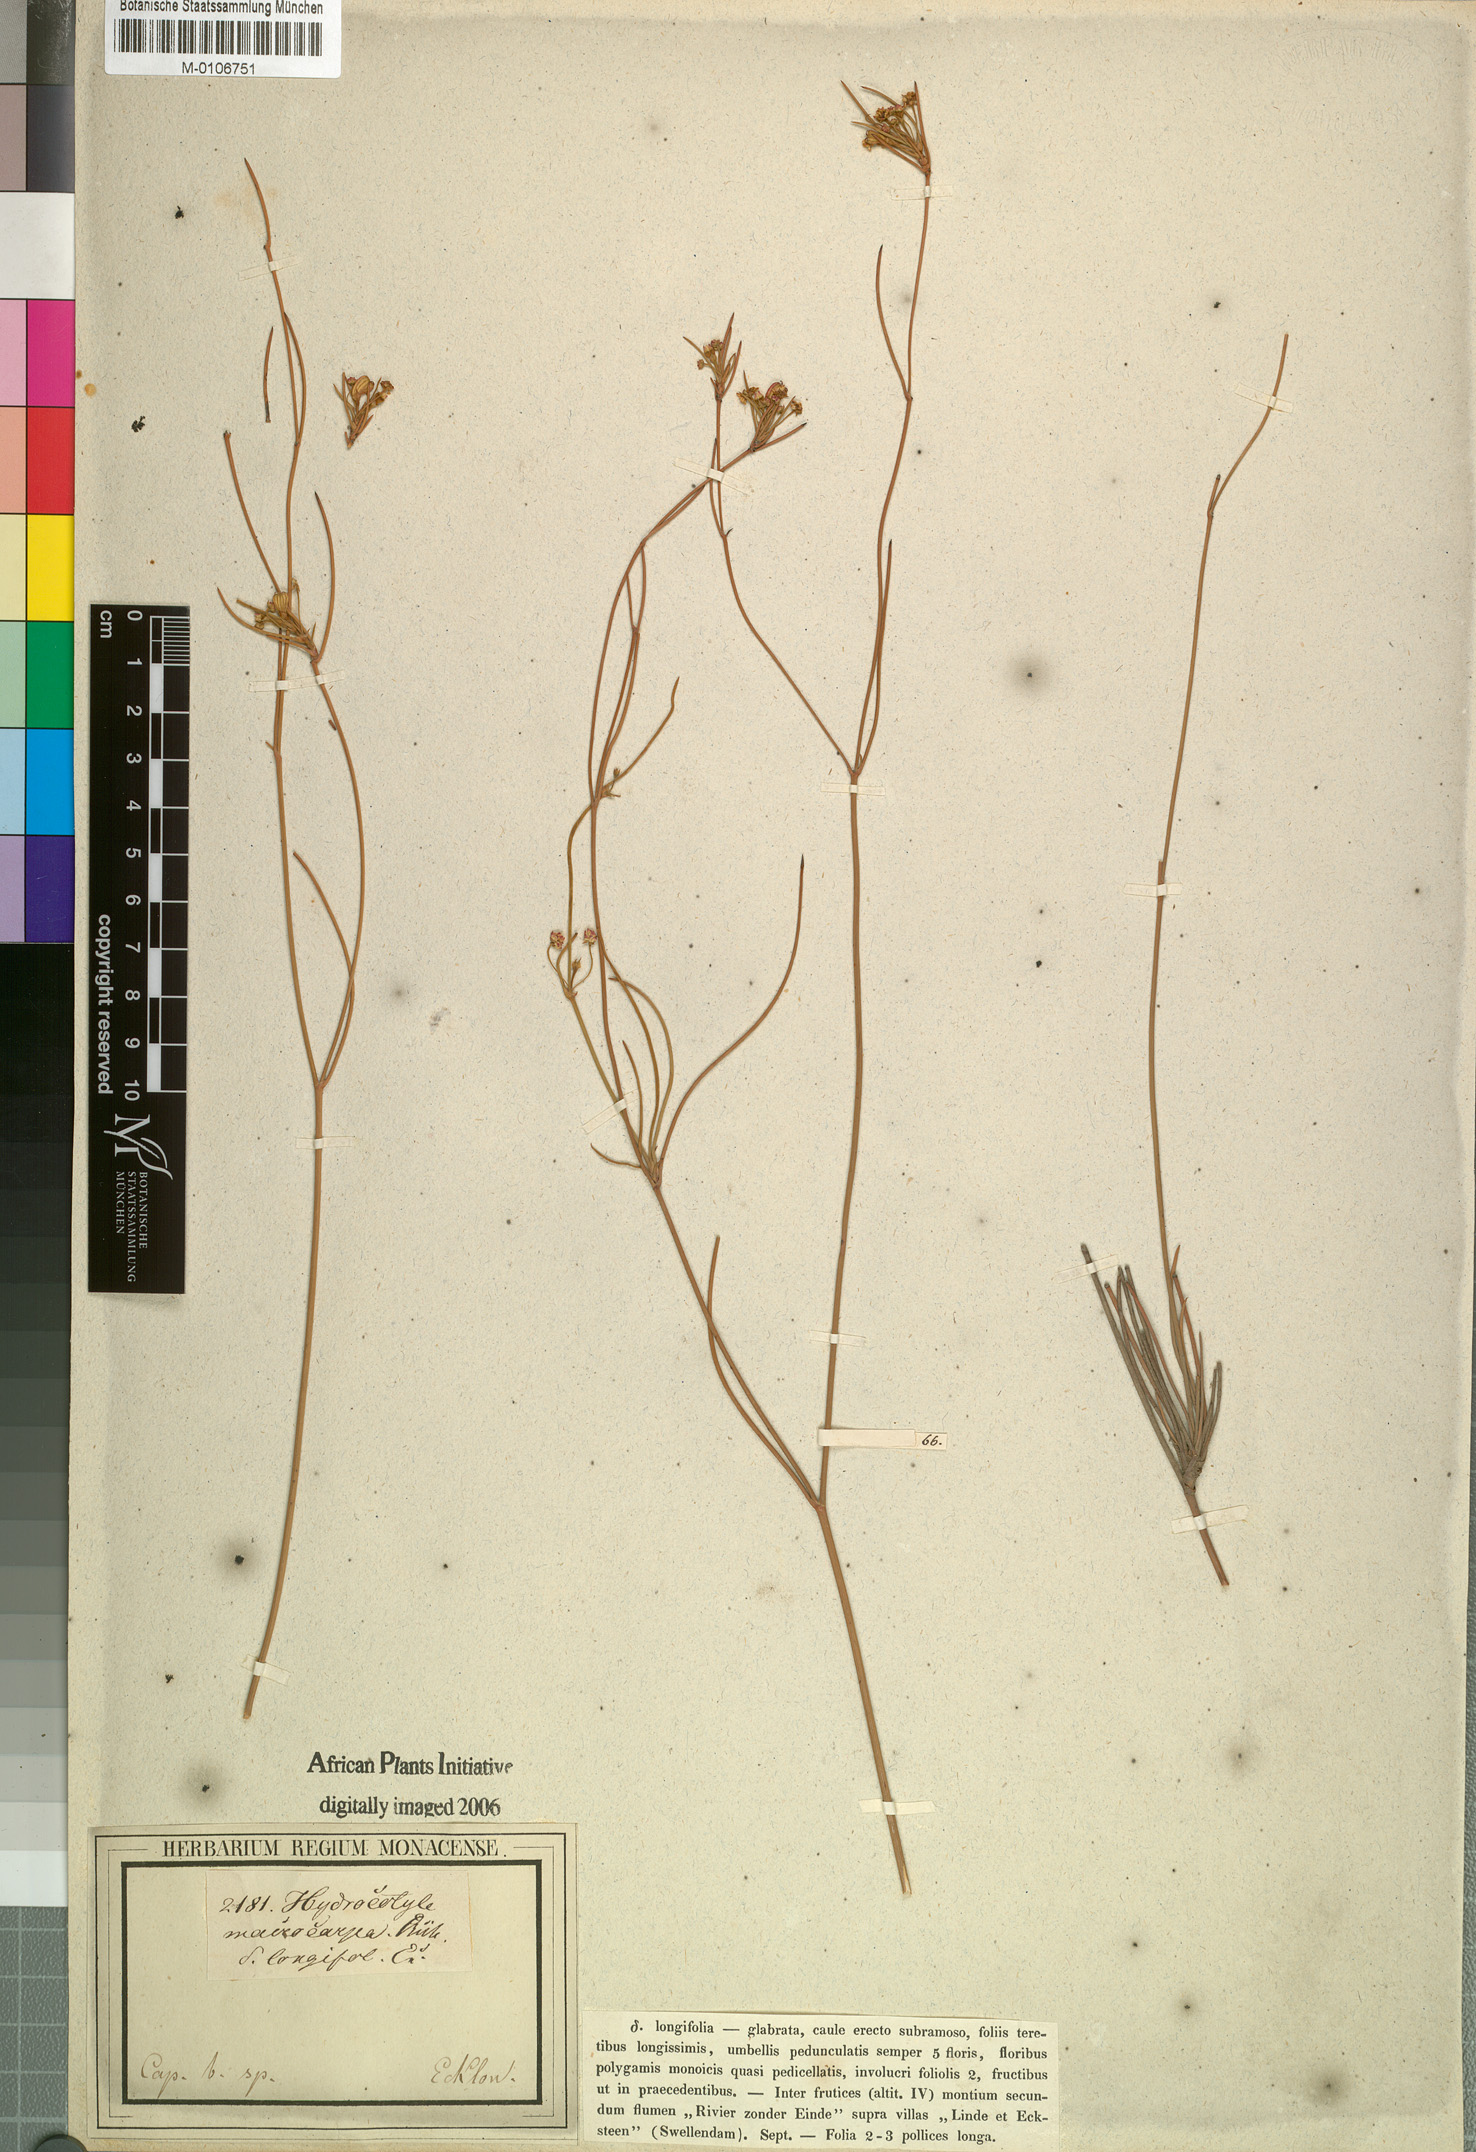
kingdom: Plantae
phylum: Tracheophyta
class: Magnoliopsida
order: Apiales
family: Apiaceae
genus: Centella
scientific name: Centella macrocarpa
